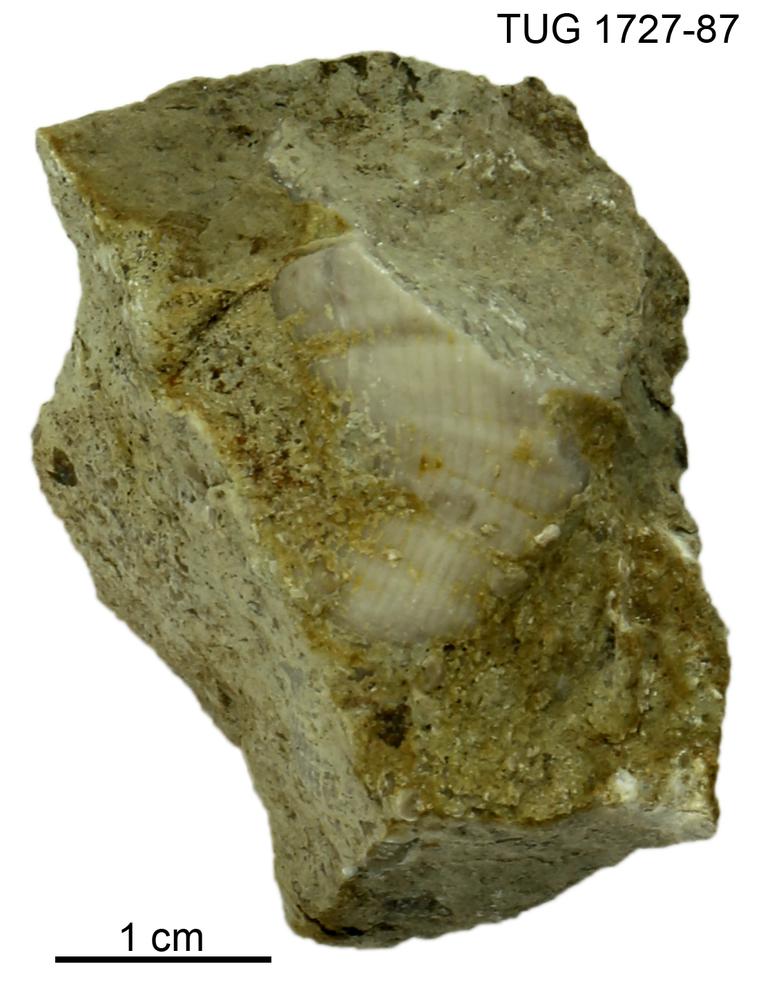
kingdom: Animalia
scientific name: Animalia
